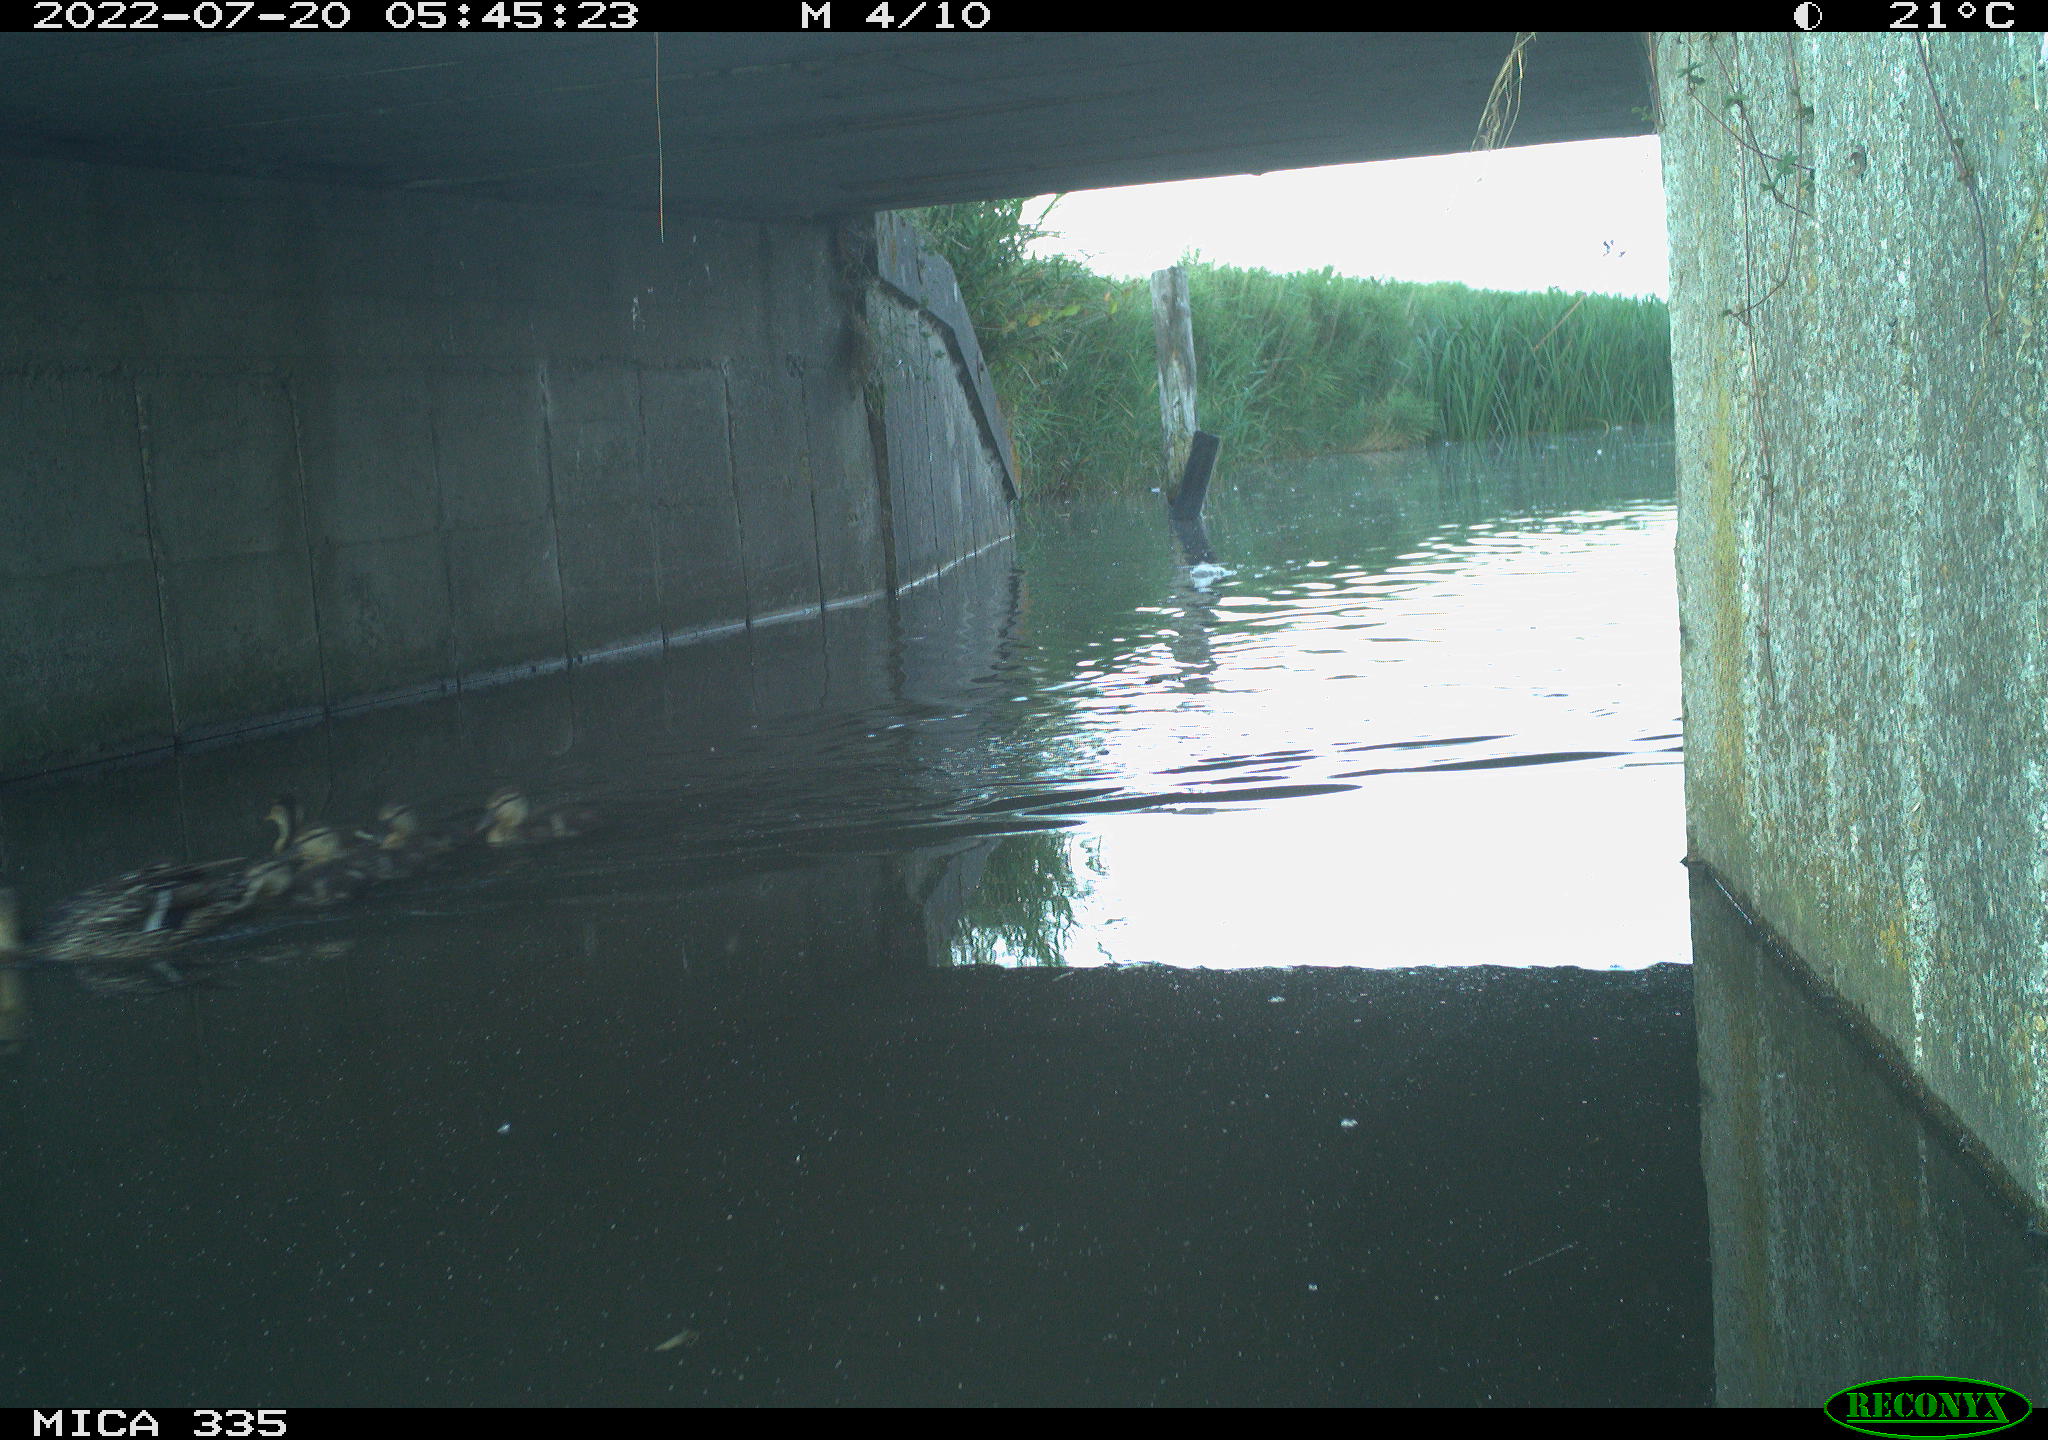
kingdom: Animalia
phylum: Chordata
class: Aves
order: Anseriformes
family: Anatidae
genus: Anas
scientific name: Anas platyrhynchos
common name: Mallard
